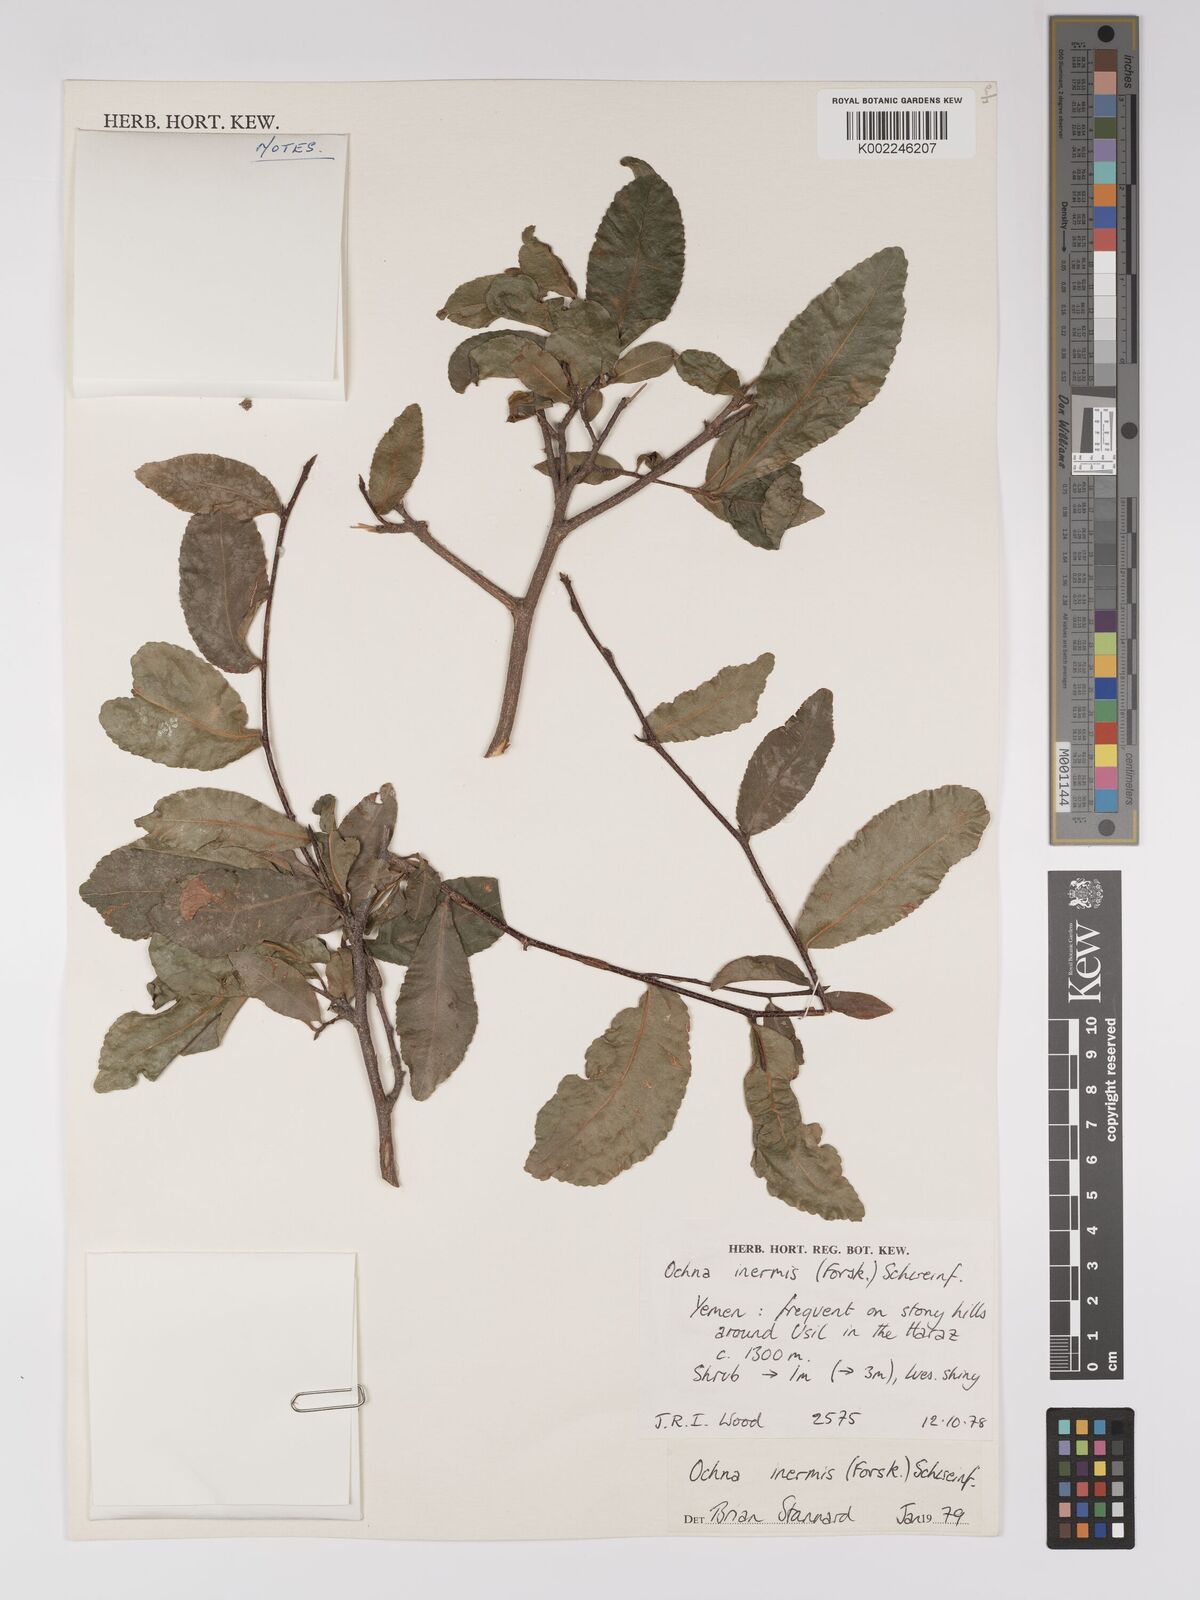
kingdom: Plantae
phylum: Tracheophyta
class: Magnoliopsida
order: Malpighiales
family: Ochnaceae
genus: Ochna
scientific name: Ochna inermis
